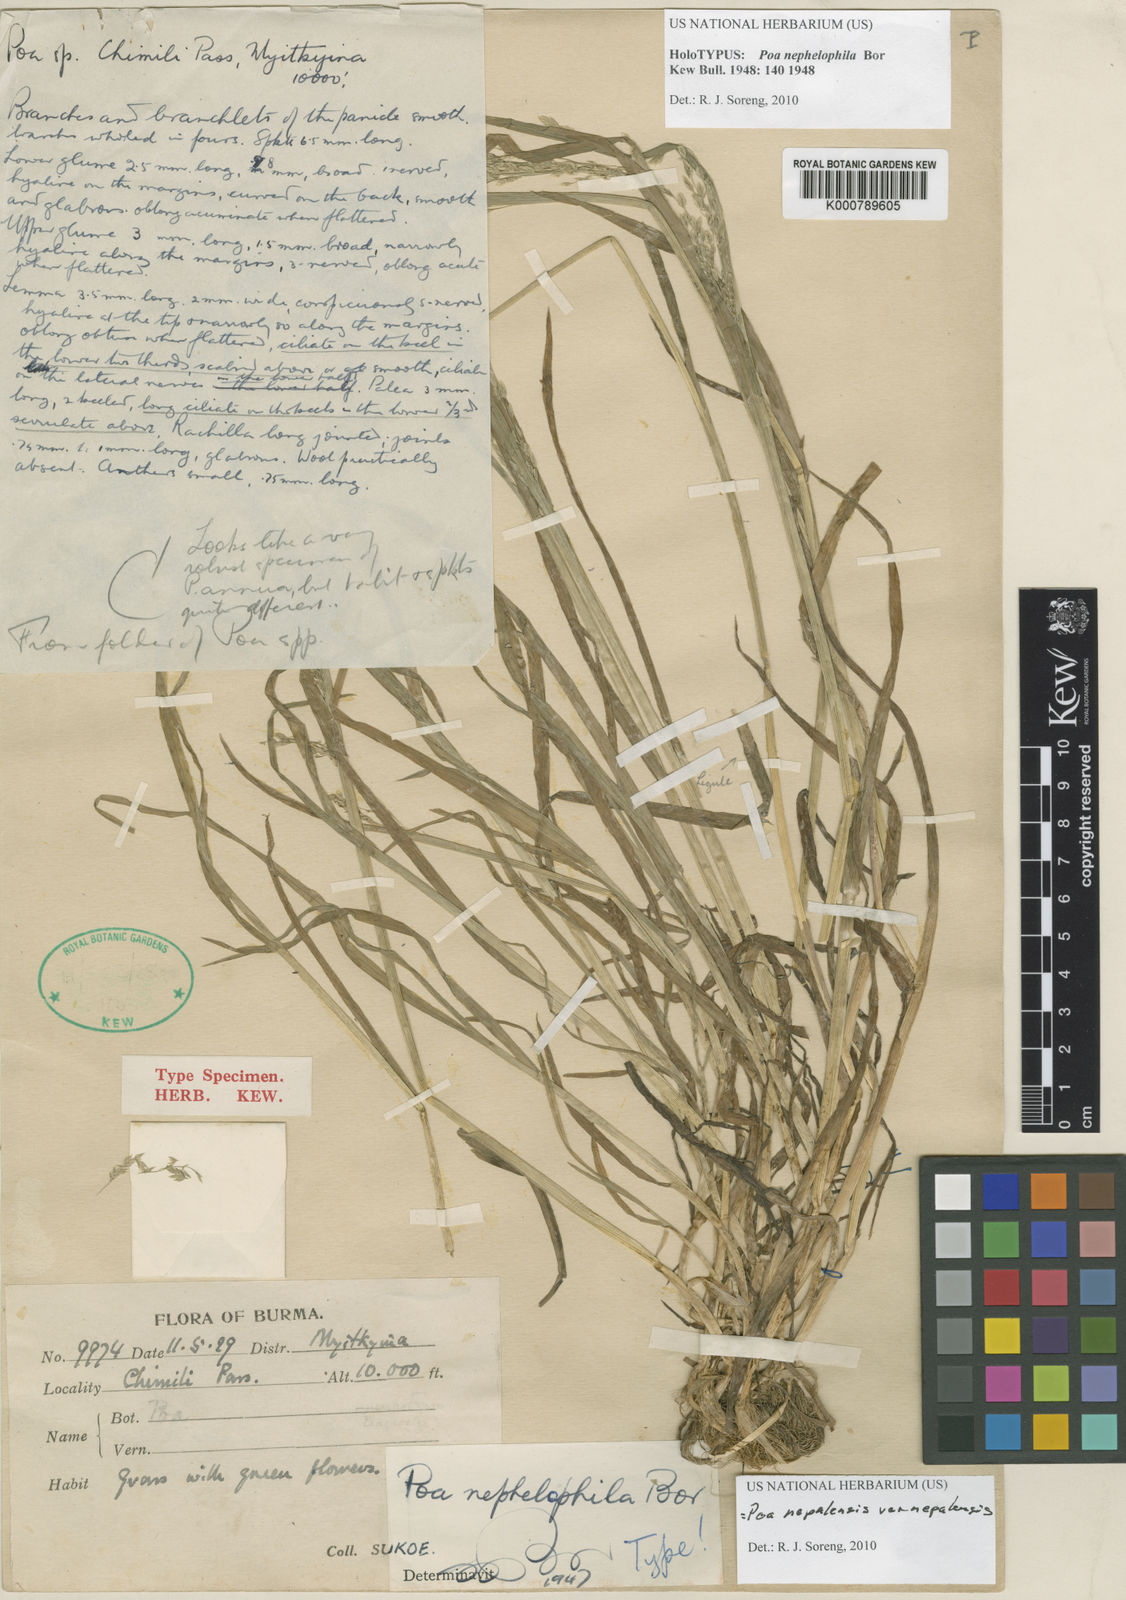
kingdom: Plantae
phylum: Tracheophyta
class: Liliopsida
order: Poales
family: Poaceae
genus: Poa
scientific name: Poa nepalensis
